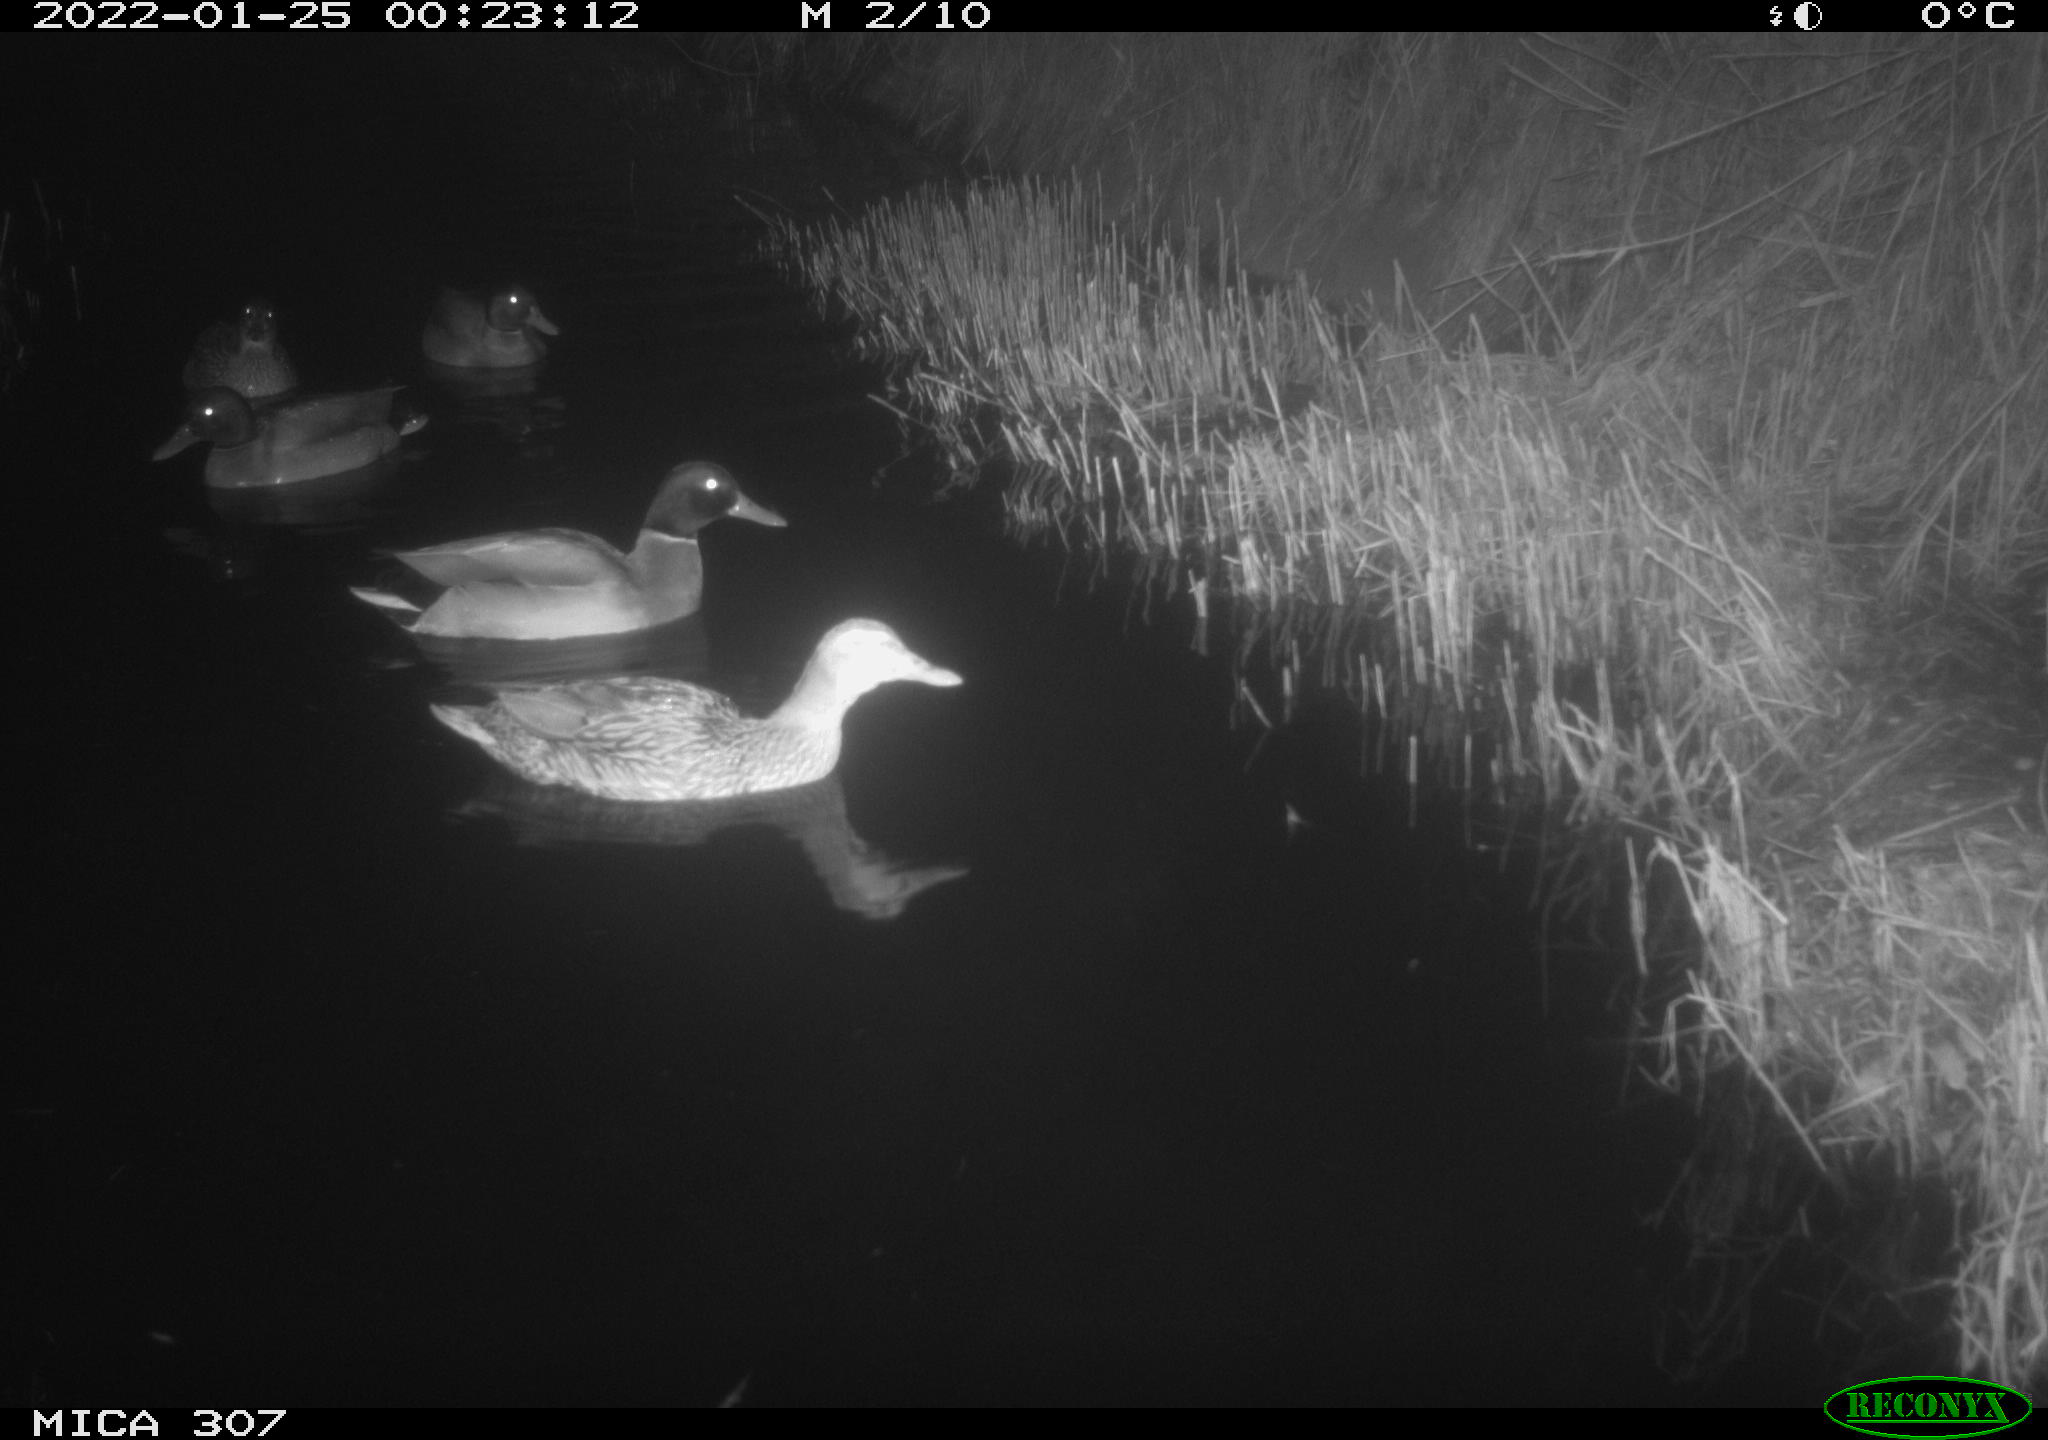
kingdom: Animalia
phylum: Chordata
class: Aves
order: Anseriformes
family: Anatidae
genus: Anas
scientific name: Anas
